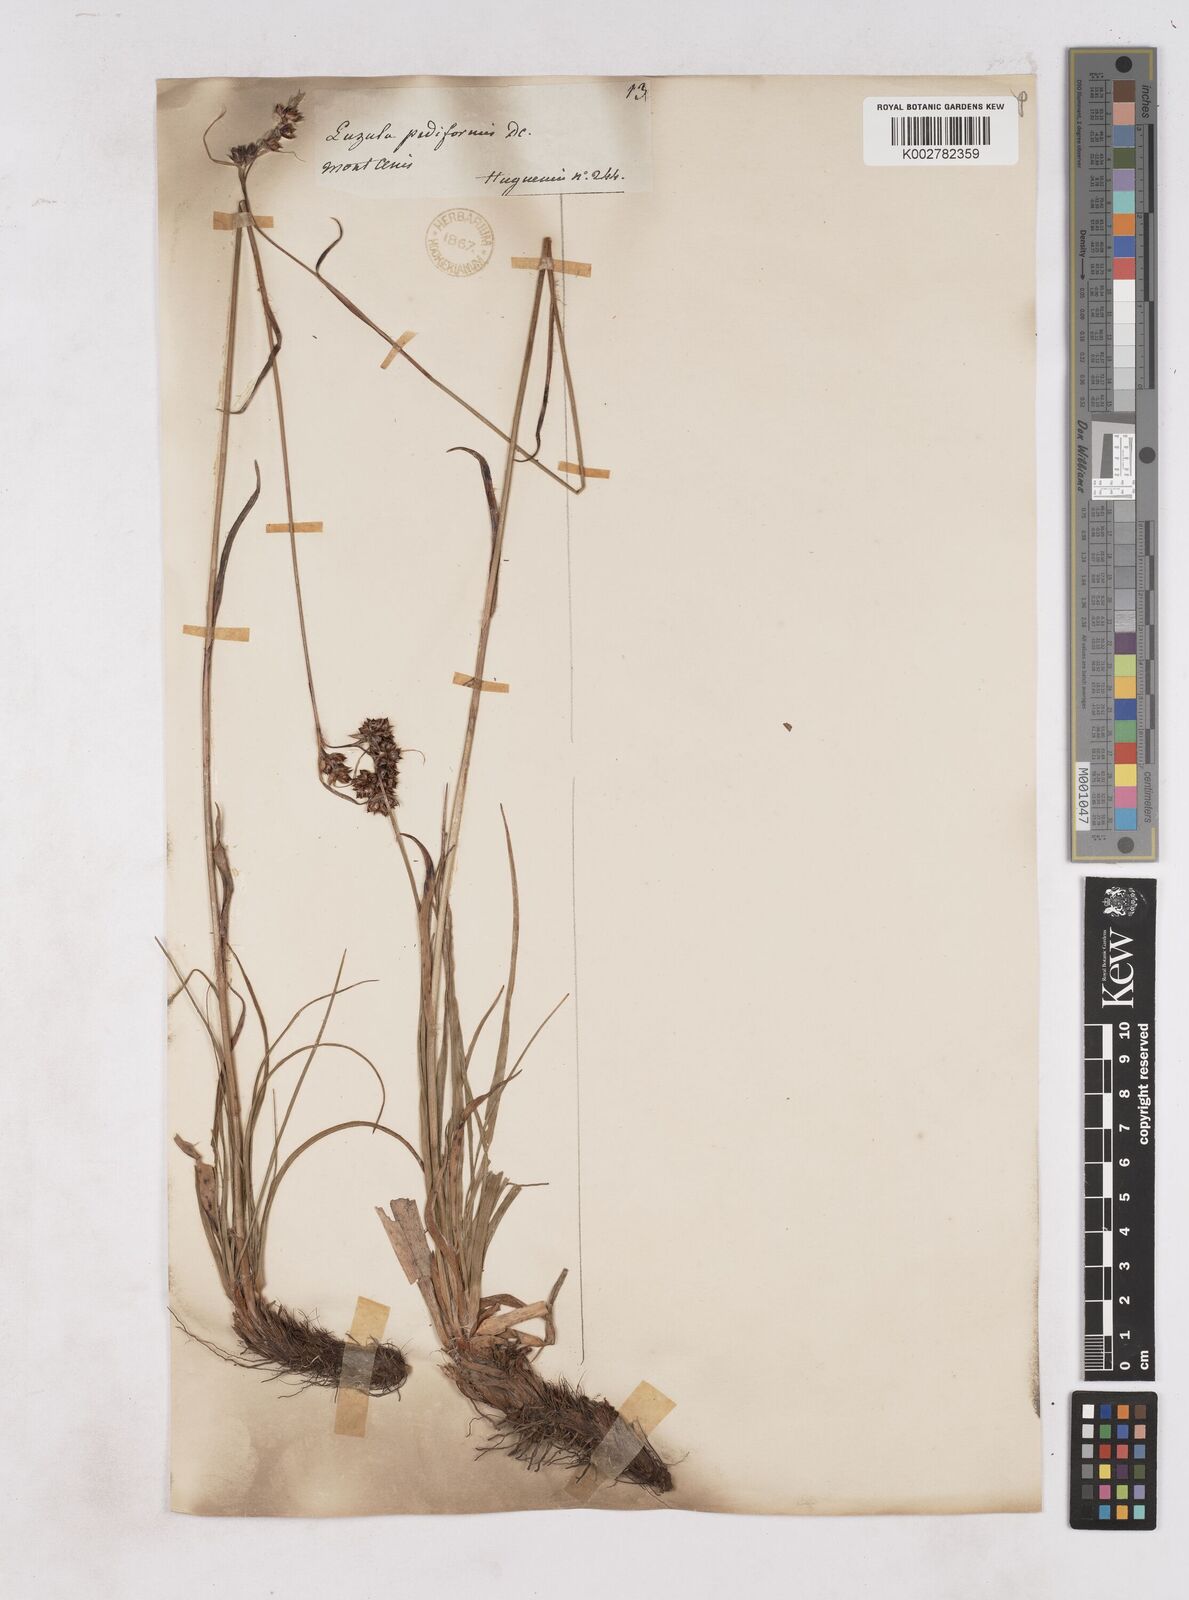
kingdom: Plantae
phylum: Tracheophyta
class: Liliopsida
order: Poales
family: Juncaceae
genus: Luzula
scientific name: Luzula pediformis
